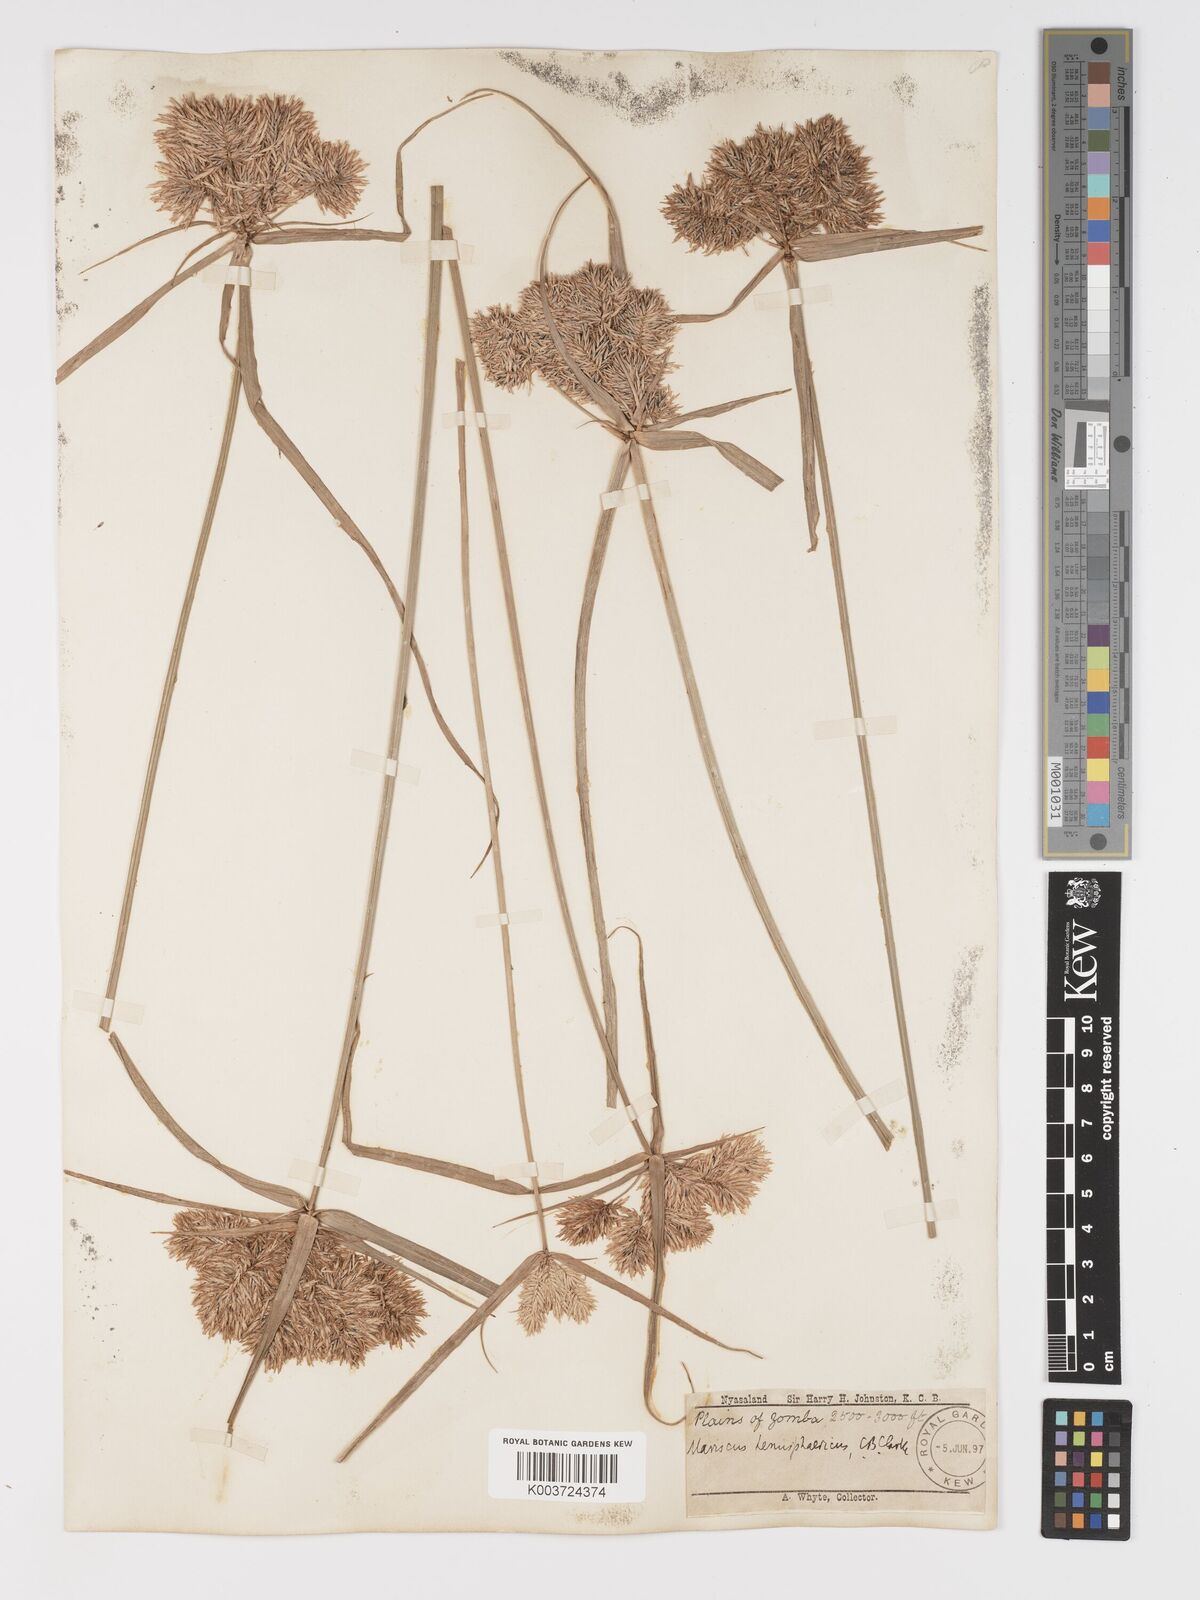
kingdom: Plantae
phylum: Tracheophyta
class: Liliopsida
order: Poales
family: Cyperaceae
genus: Cyperus
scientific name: Cyperus hemisphaericus
